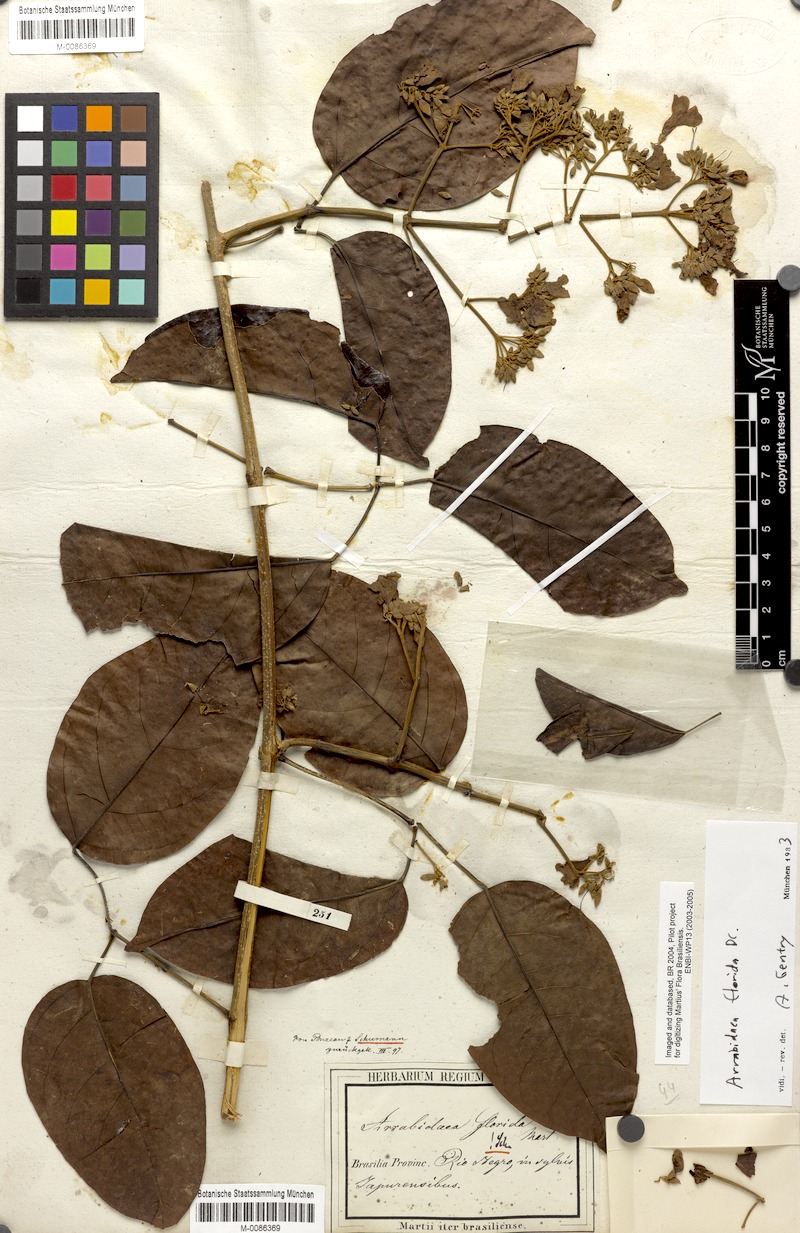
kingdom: Plantae
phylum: Tracheophyta
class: Magnoliopsida
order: Lamiales
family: Bignoniaceae
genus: Fridericia
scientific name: Fridericia florida
